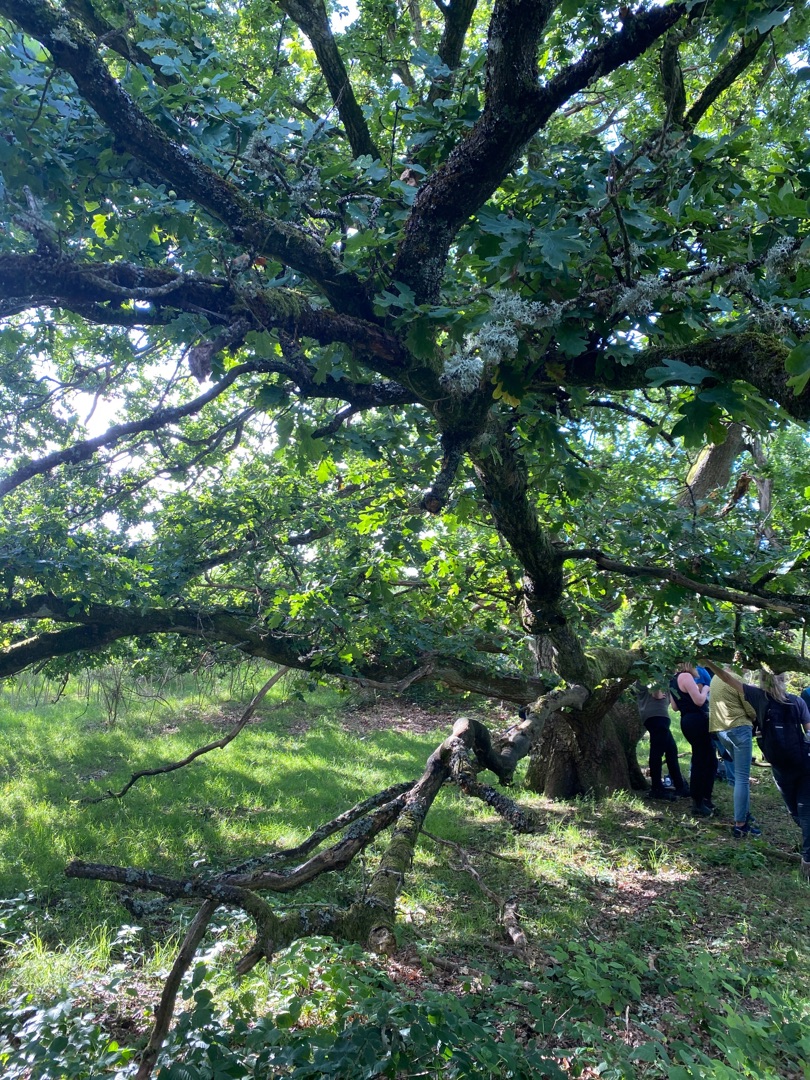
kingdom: Plantae
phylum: Tracheophyta
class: Magnoliopsida
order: Fagales
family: Fagaceae
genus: Quercus
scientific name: Quercus robur
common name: Stilk-eg/almindelig eg
